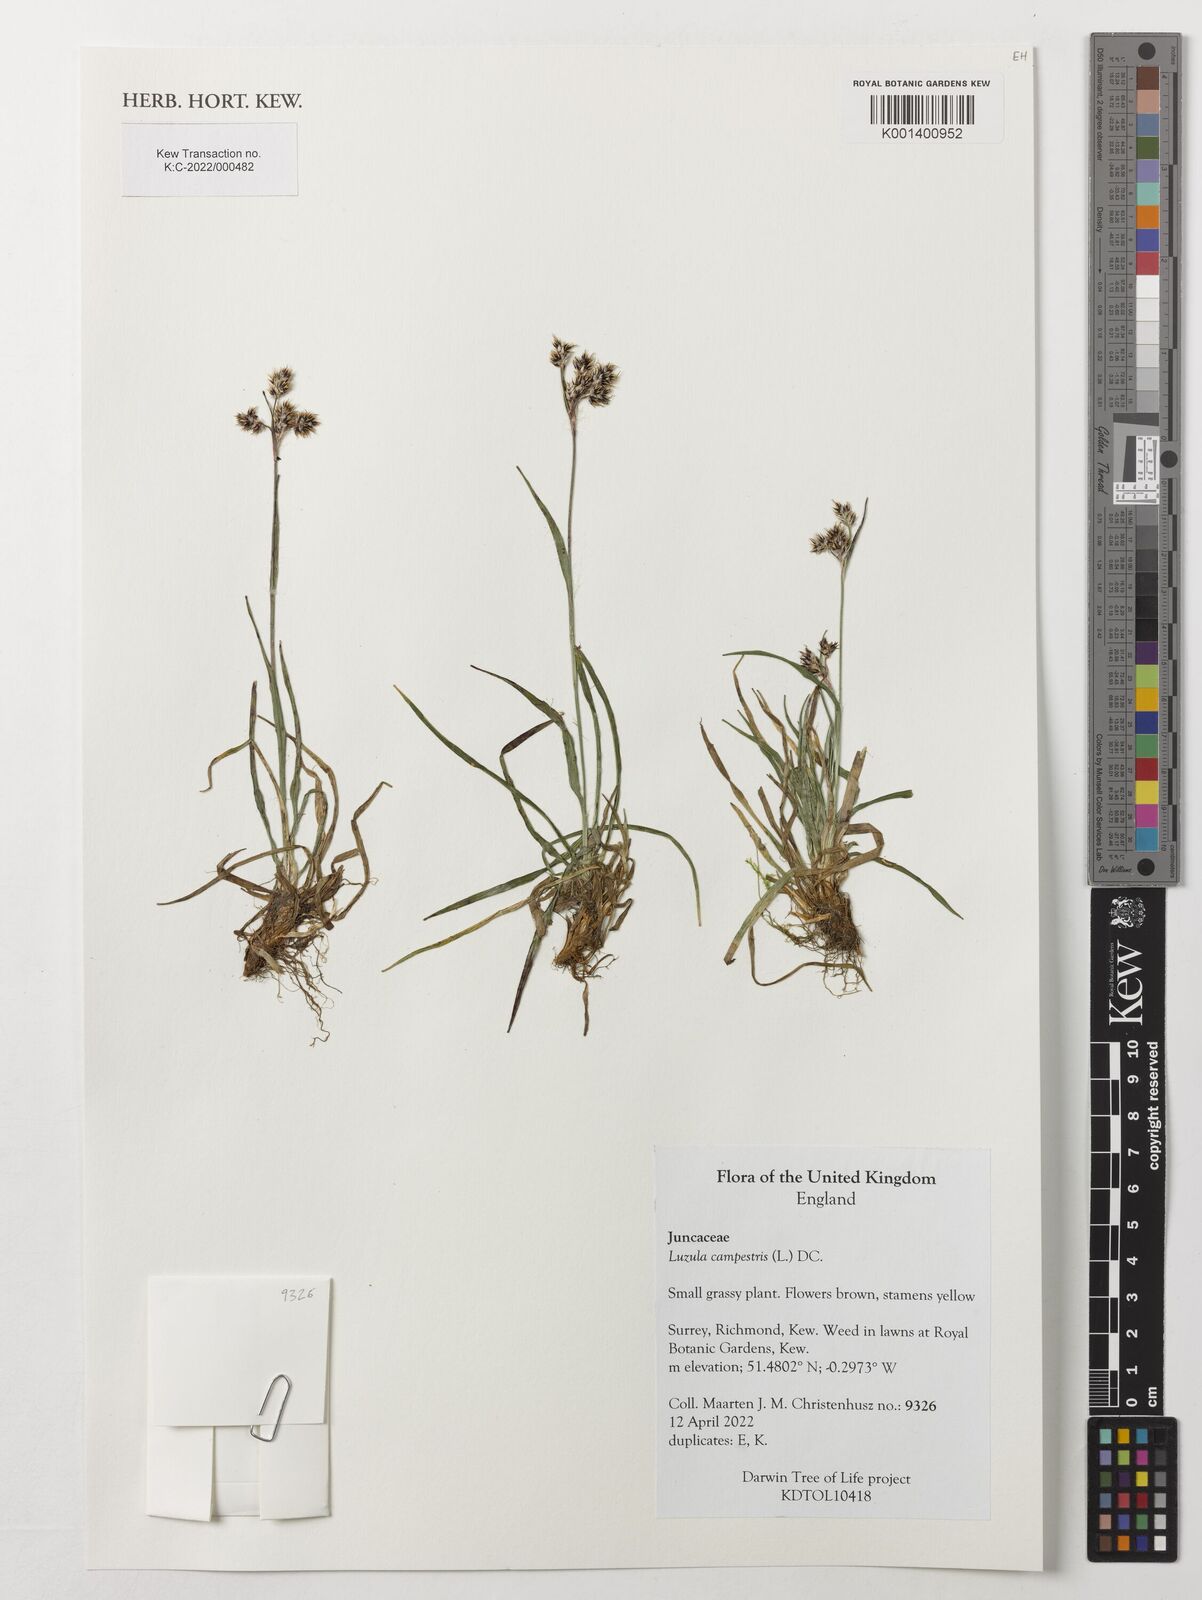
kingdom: Plantae
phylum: Tracheophyta
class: Liliopsida
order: Poales
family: Juncaceae
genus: Luzula
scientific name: Luzula campestris
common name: Field wood-rush
